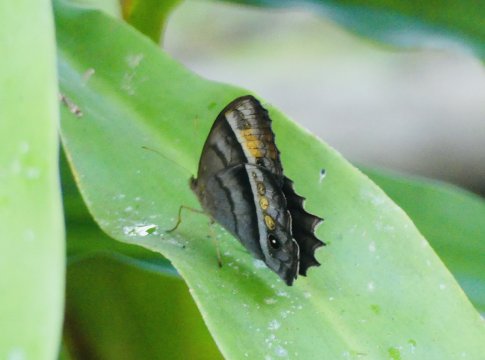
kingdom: Animalia
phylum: Arthropoda
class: Insecta
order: Lepidoptera
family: Nymphalidae
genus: Taygetis
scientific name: Taygetis thamyra
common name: Thamyra Satyr
